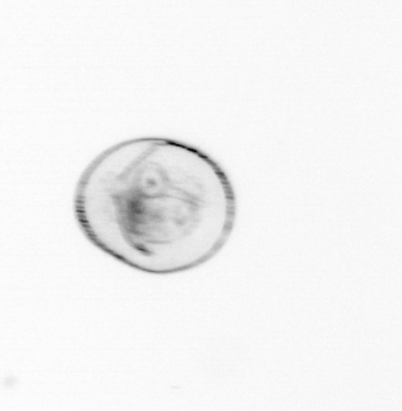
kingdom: Chromista
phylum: Myzozoa
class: Dinophyceae
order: Noctilucales
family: Noctilucaceae
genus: Noctiluca
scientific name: Noctiluca scintillans
